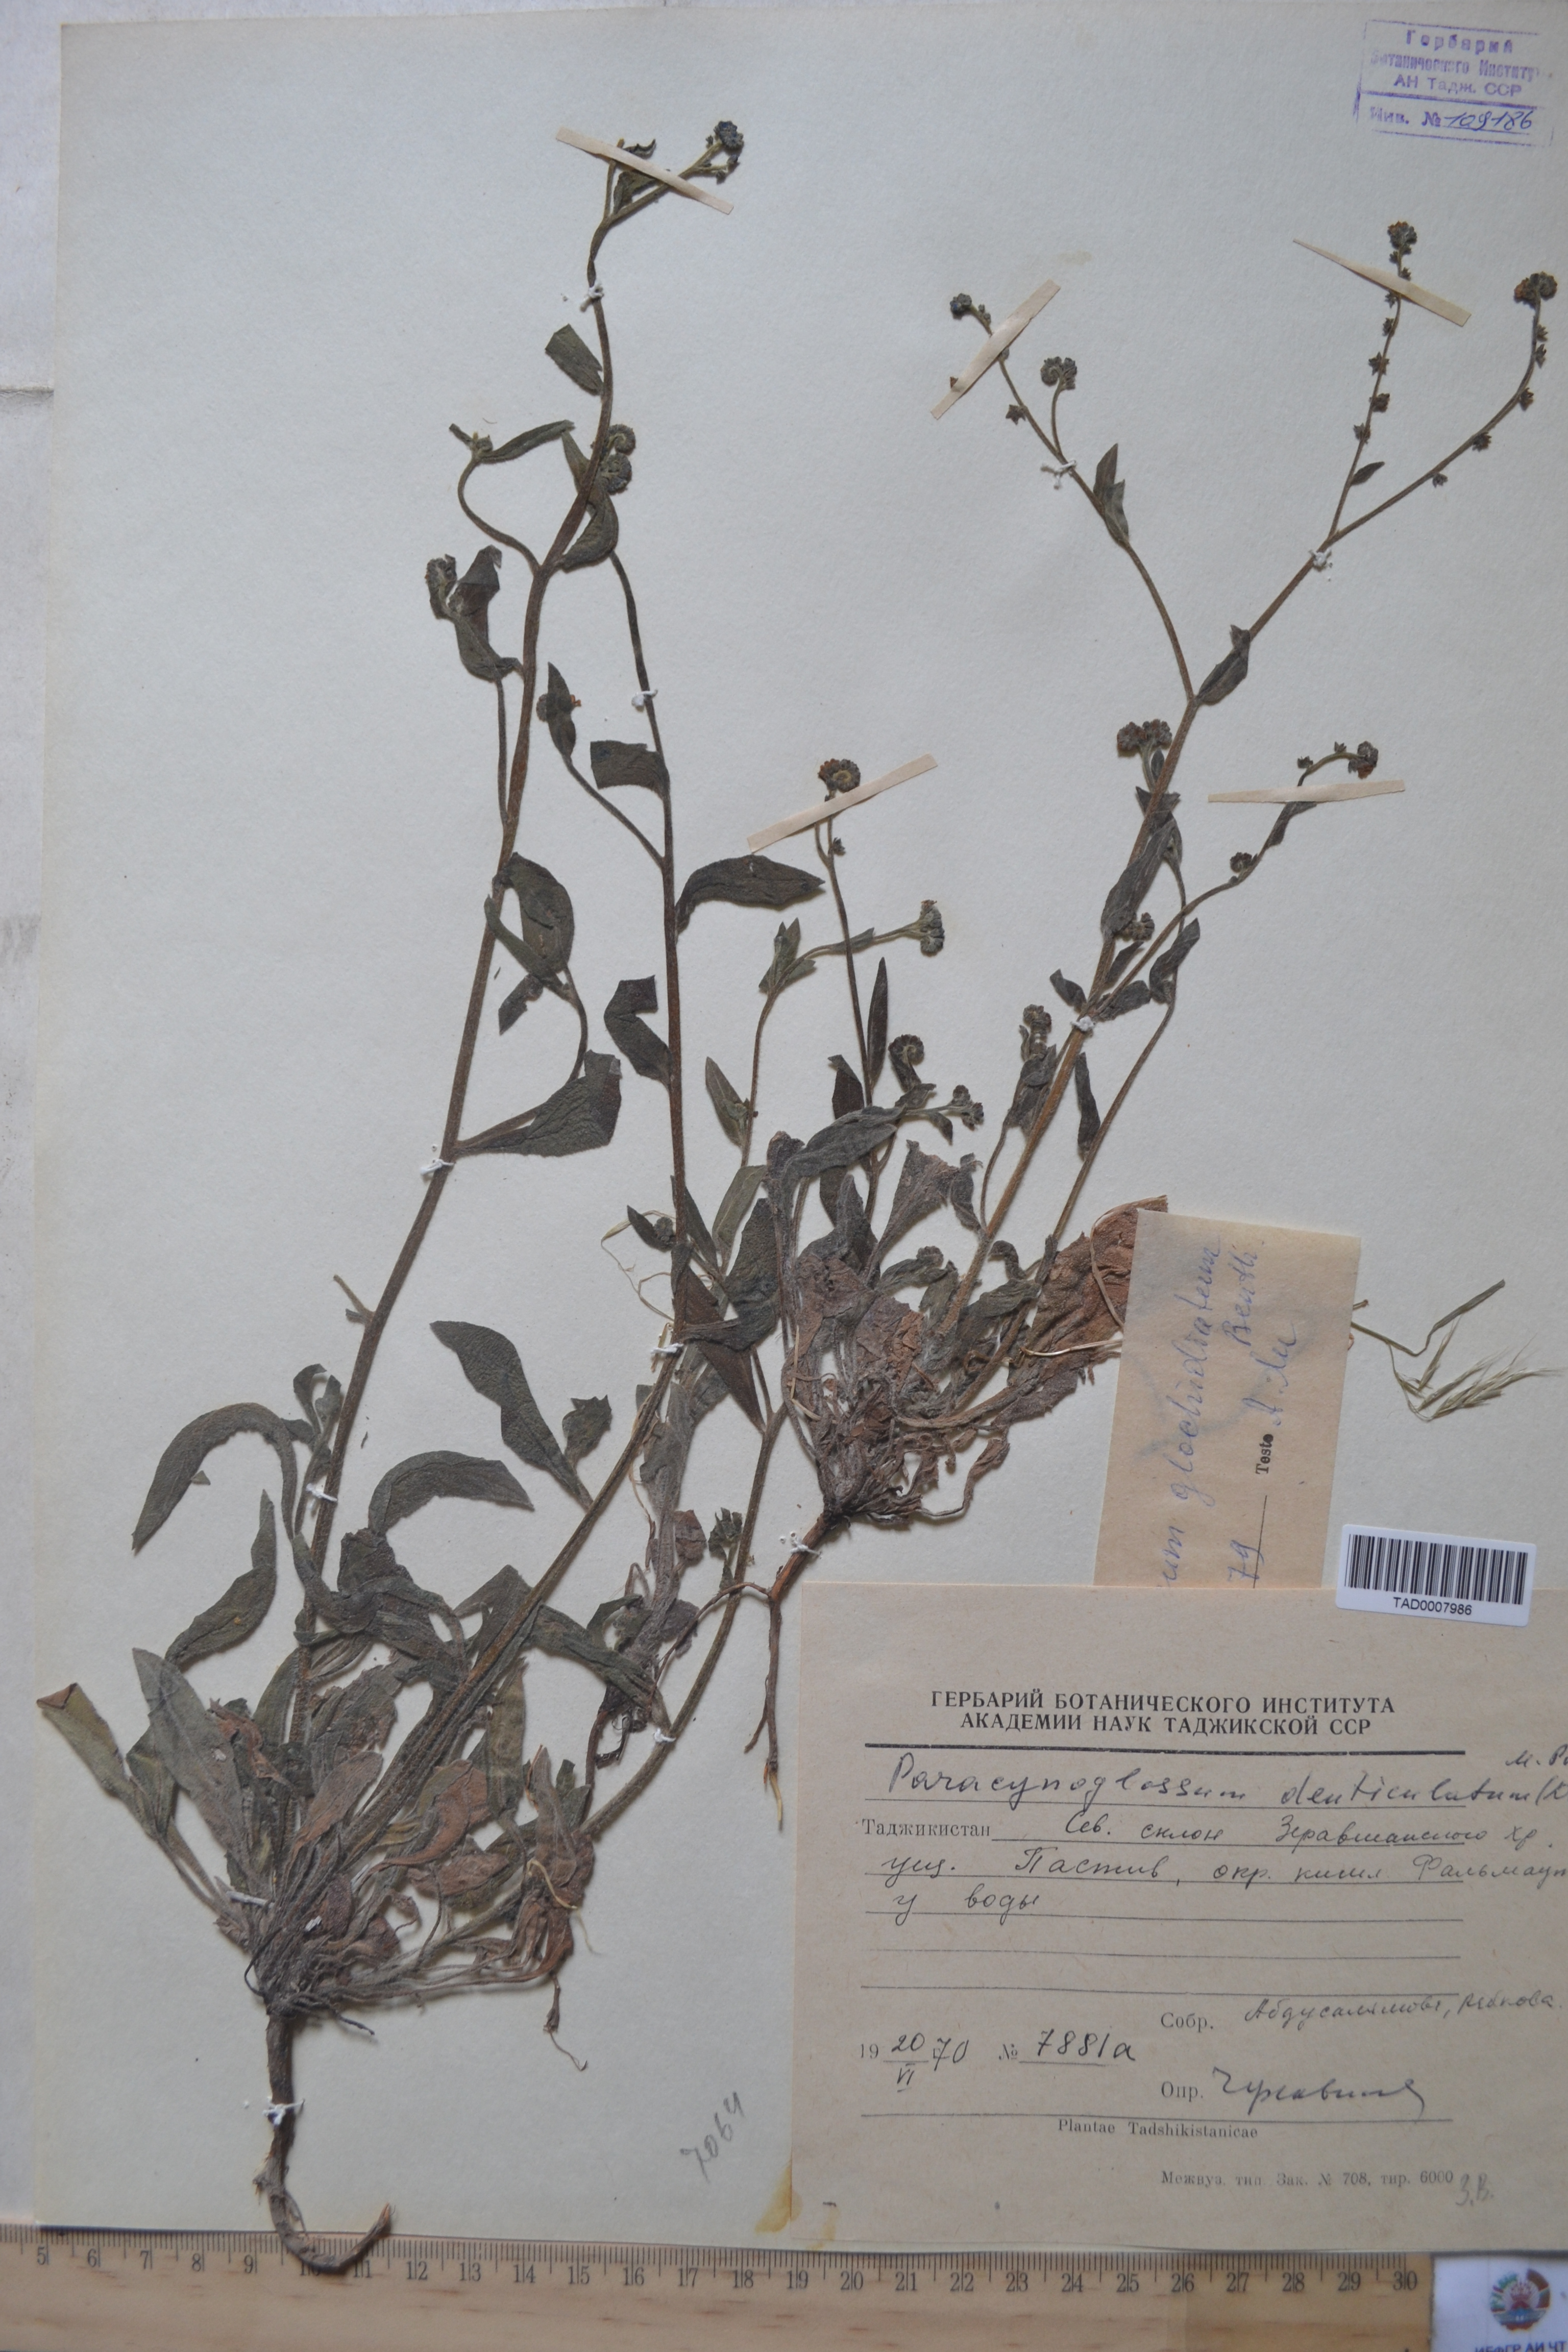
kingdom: Plantae
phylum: Tracheophyta
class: Magnoliopsida
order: Boraginales
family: Boraginaceae
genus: Paracynoglossum
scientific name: Paracynoglossum glochidiatum
